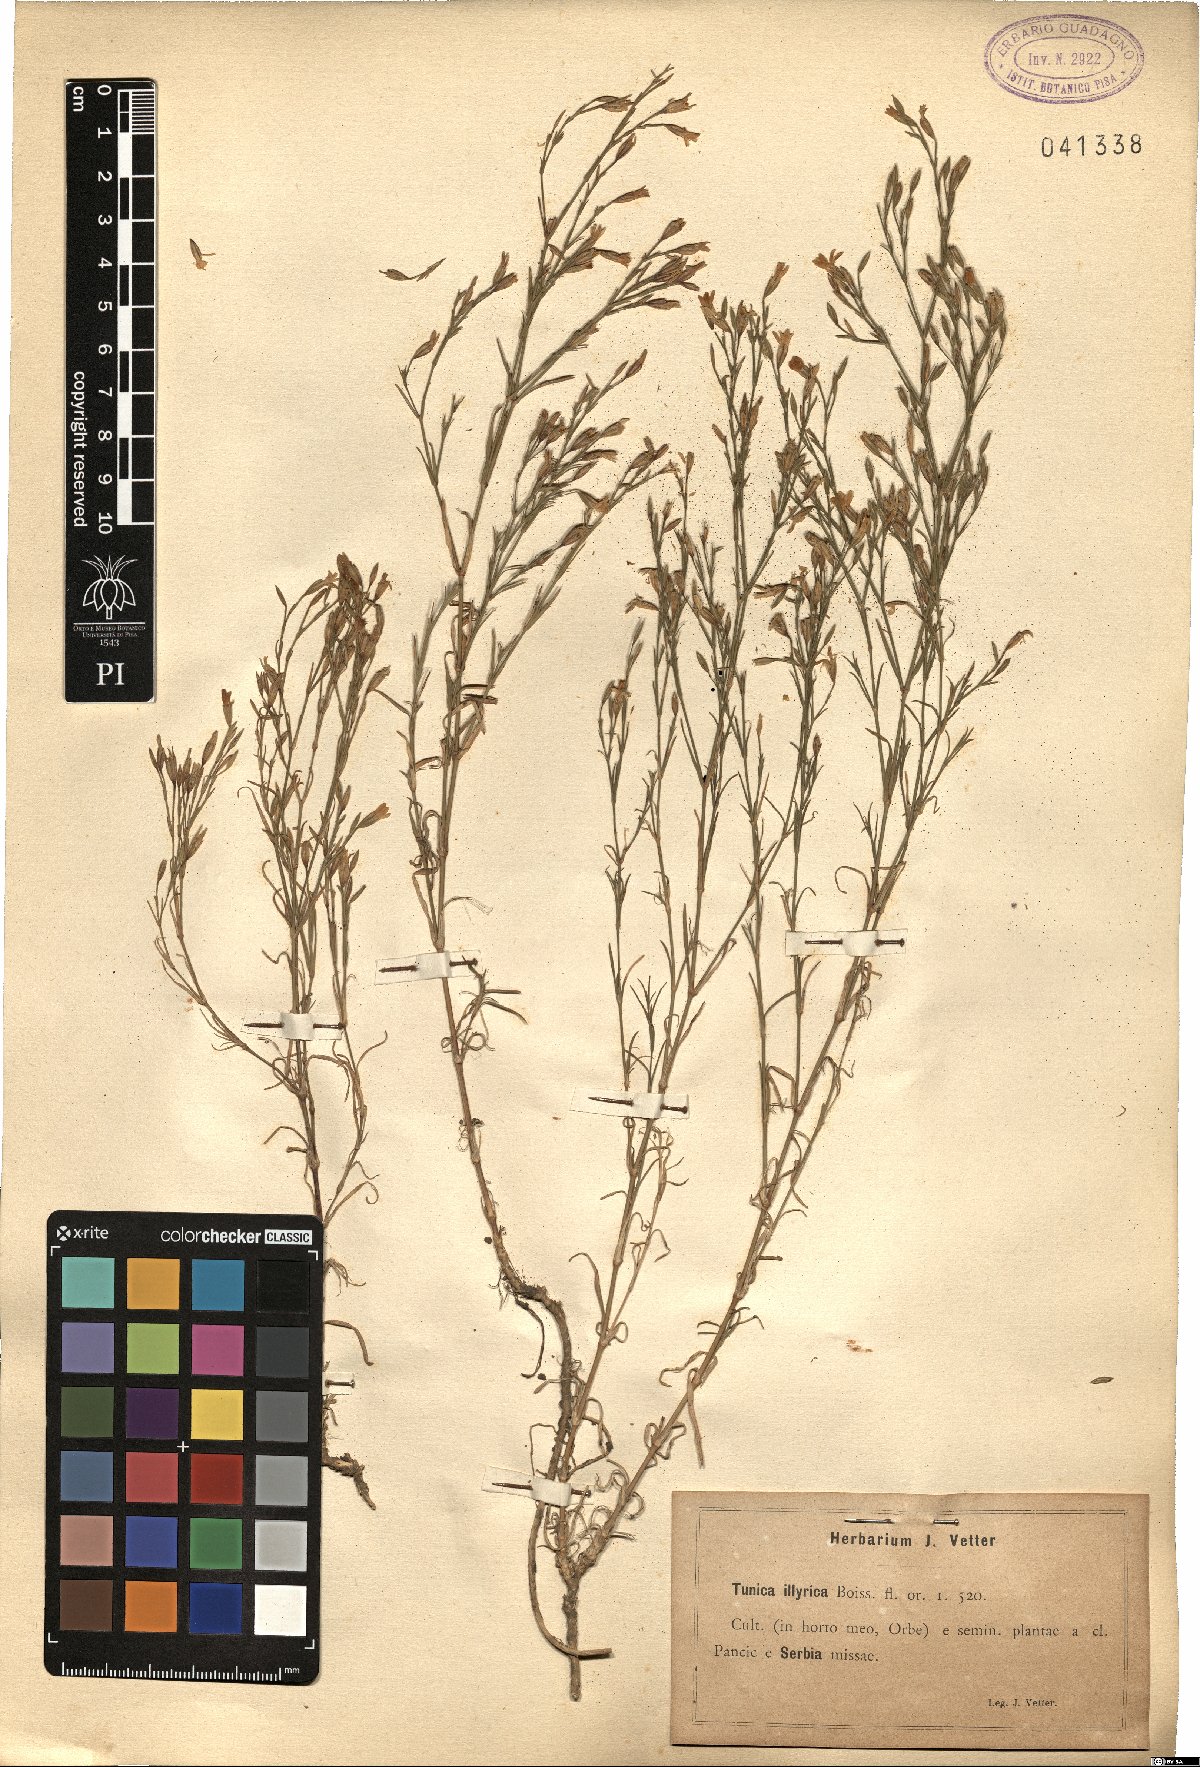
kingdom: Plantae
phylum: Tracheophyta
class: Magnoliopsida
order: Caryophyllales
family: Caryophyllaceae
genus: Dianthus
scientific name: Dianthus illyricus
